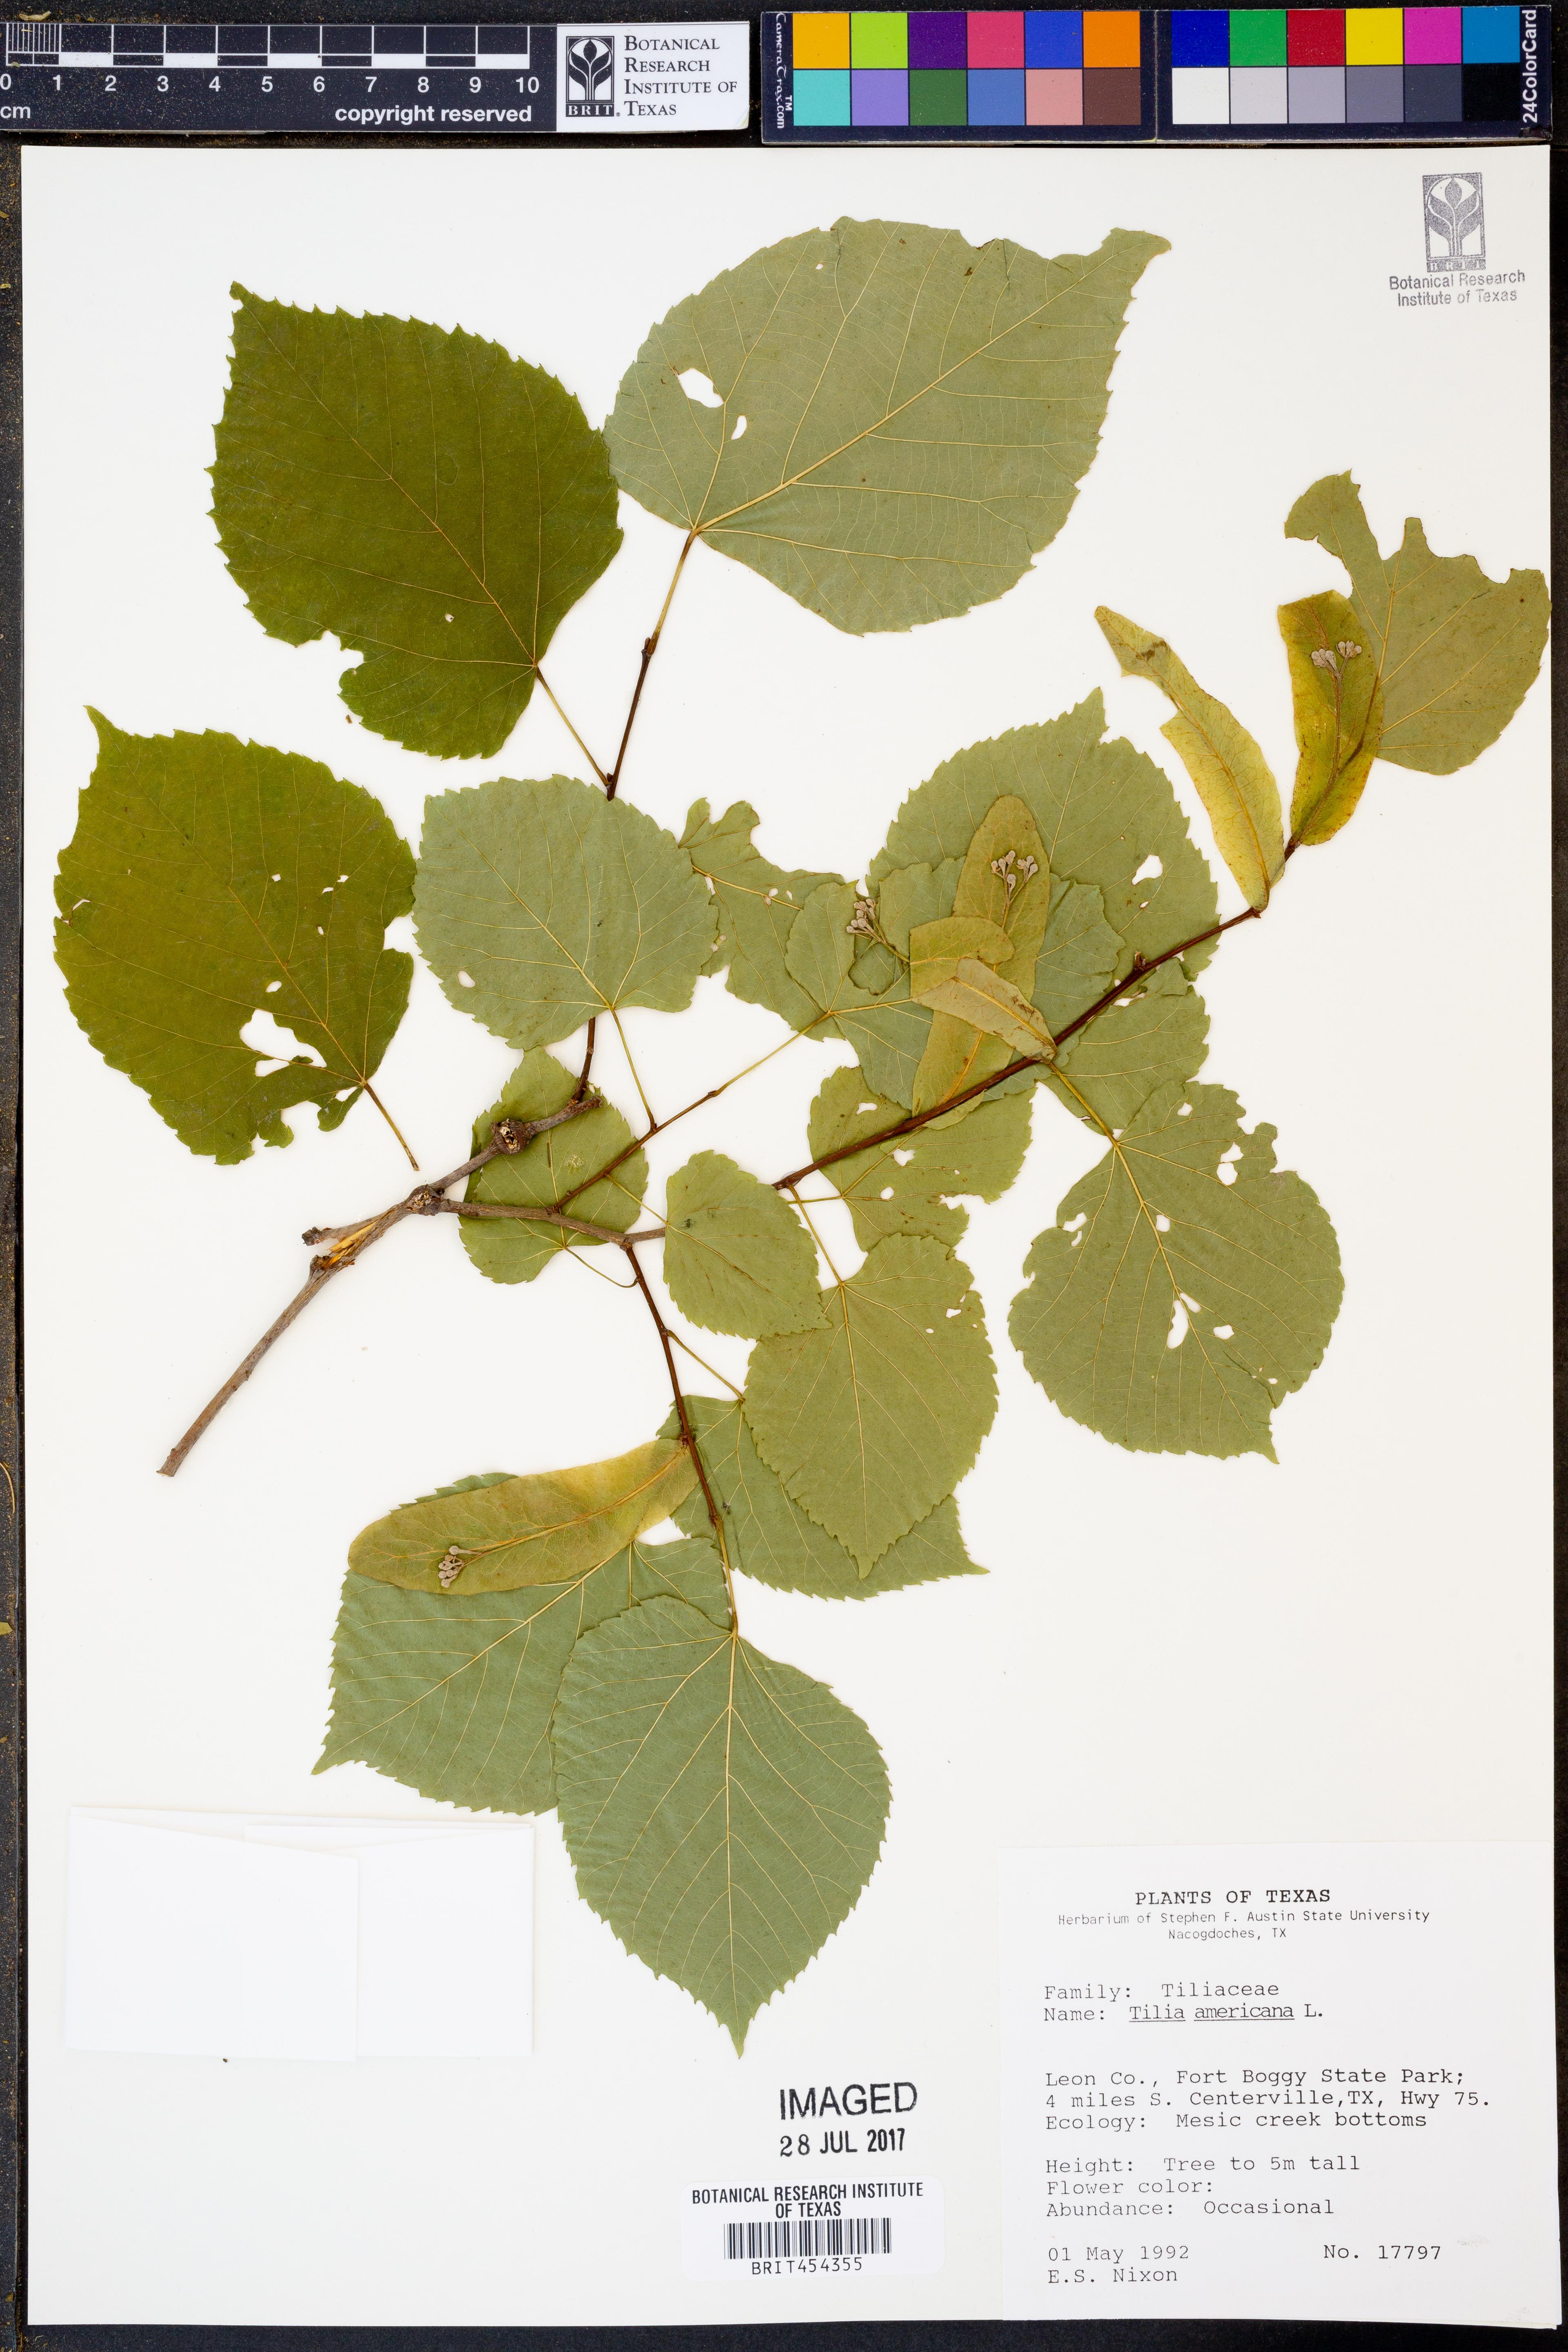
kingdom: Plantae
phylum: Tracheophyta
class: Magnoliopsida
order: Malvales
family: Malvaceae
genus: Tilia
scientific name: Tilia americana
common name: Basswood
